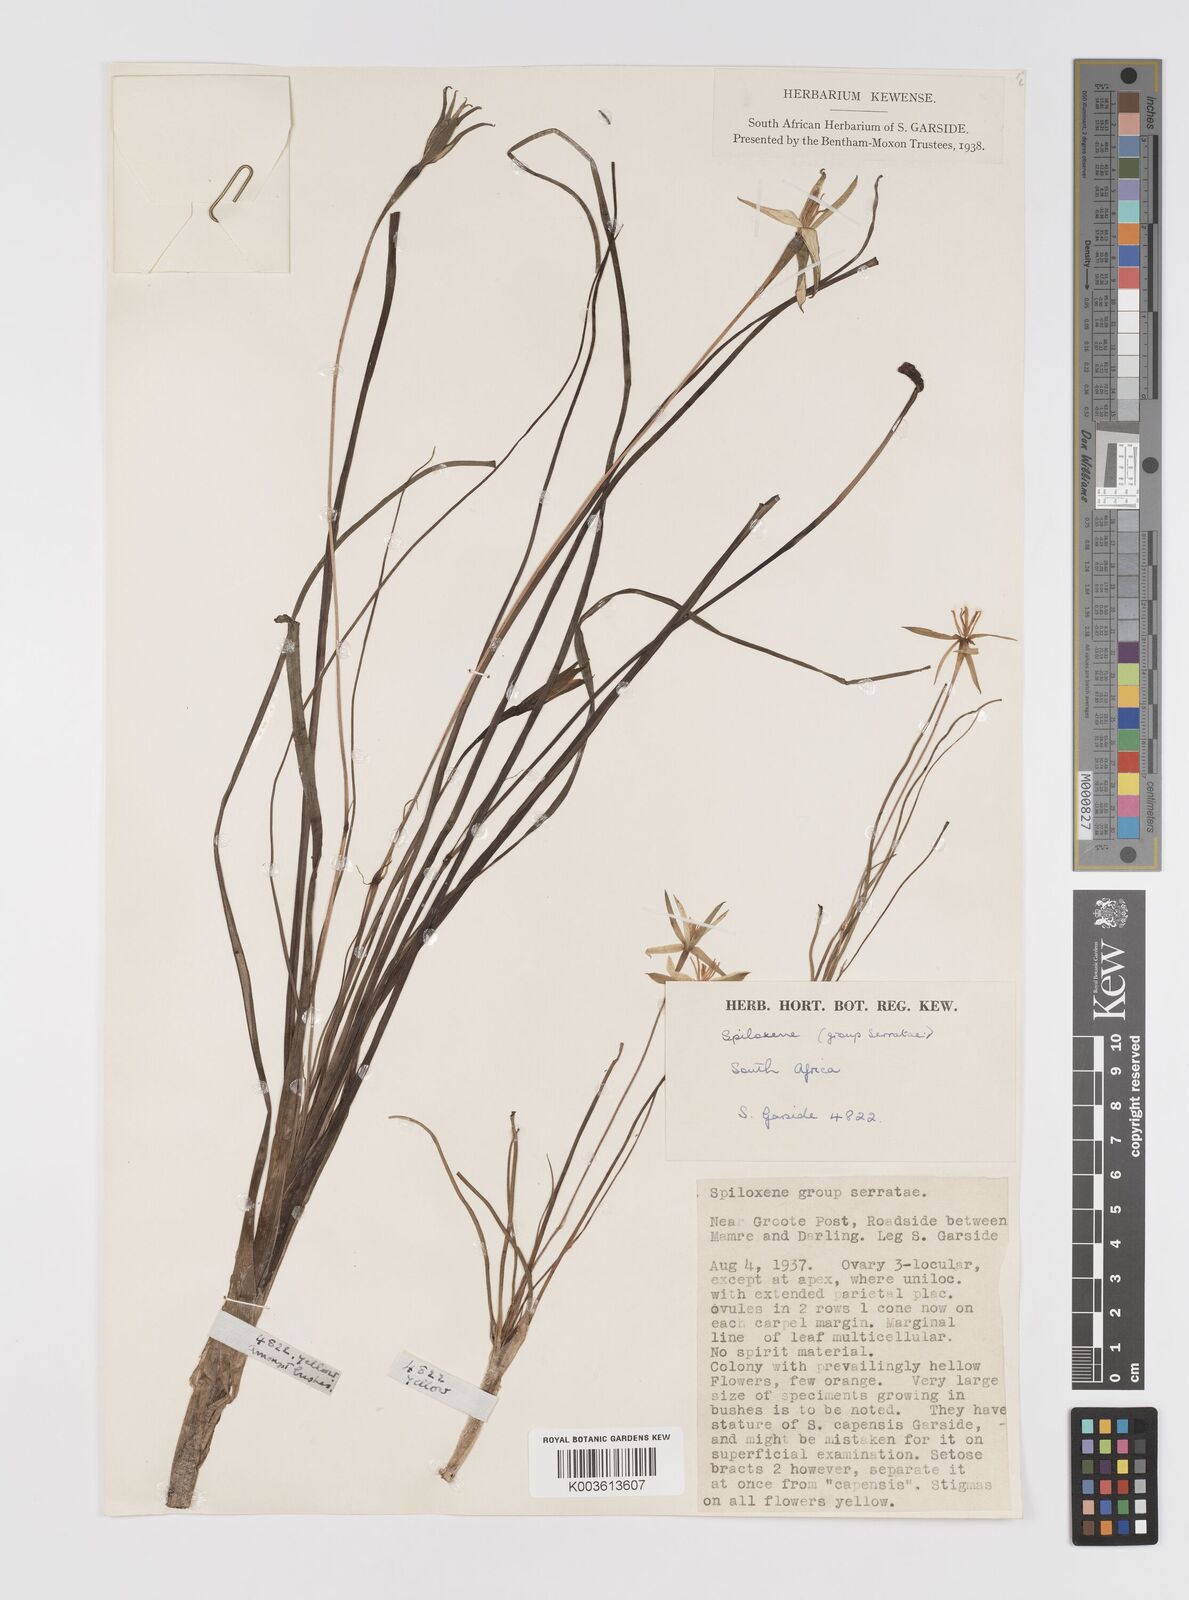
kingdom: Plantae
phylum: Tracheophyta
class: Liliopsida
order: Asparagales
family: Hypoxidaceae
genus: Pauridia
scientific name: Pauridia serrata
